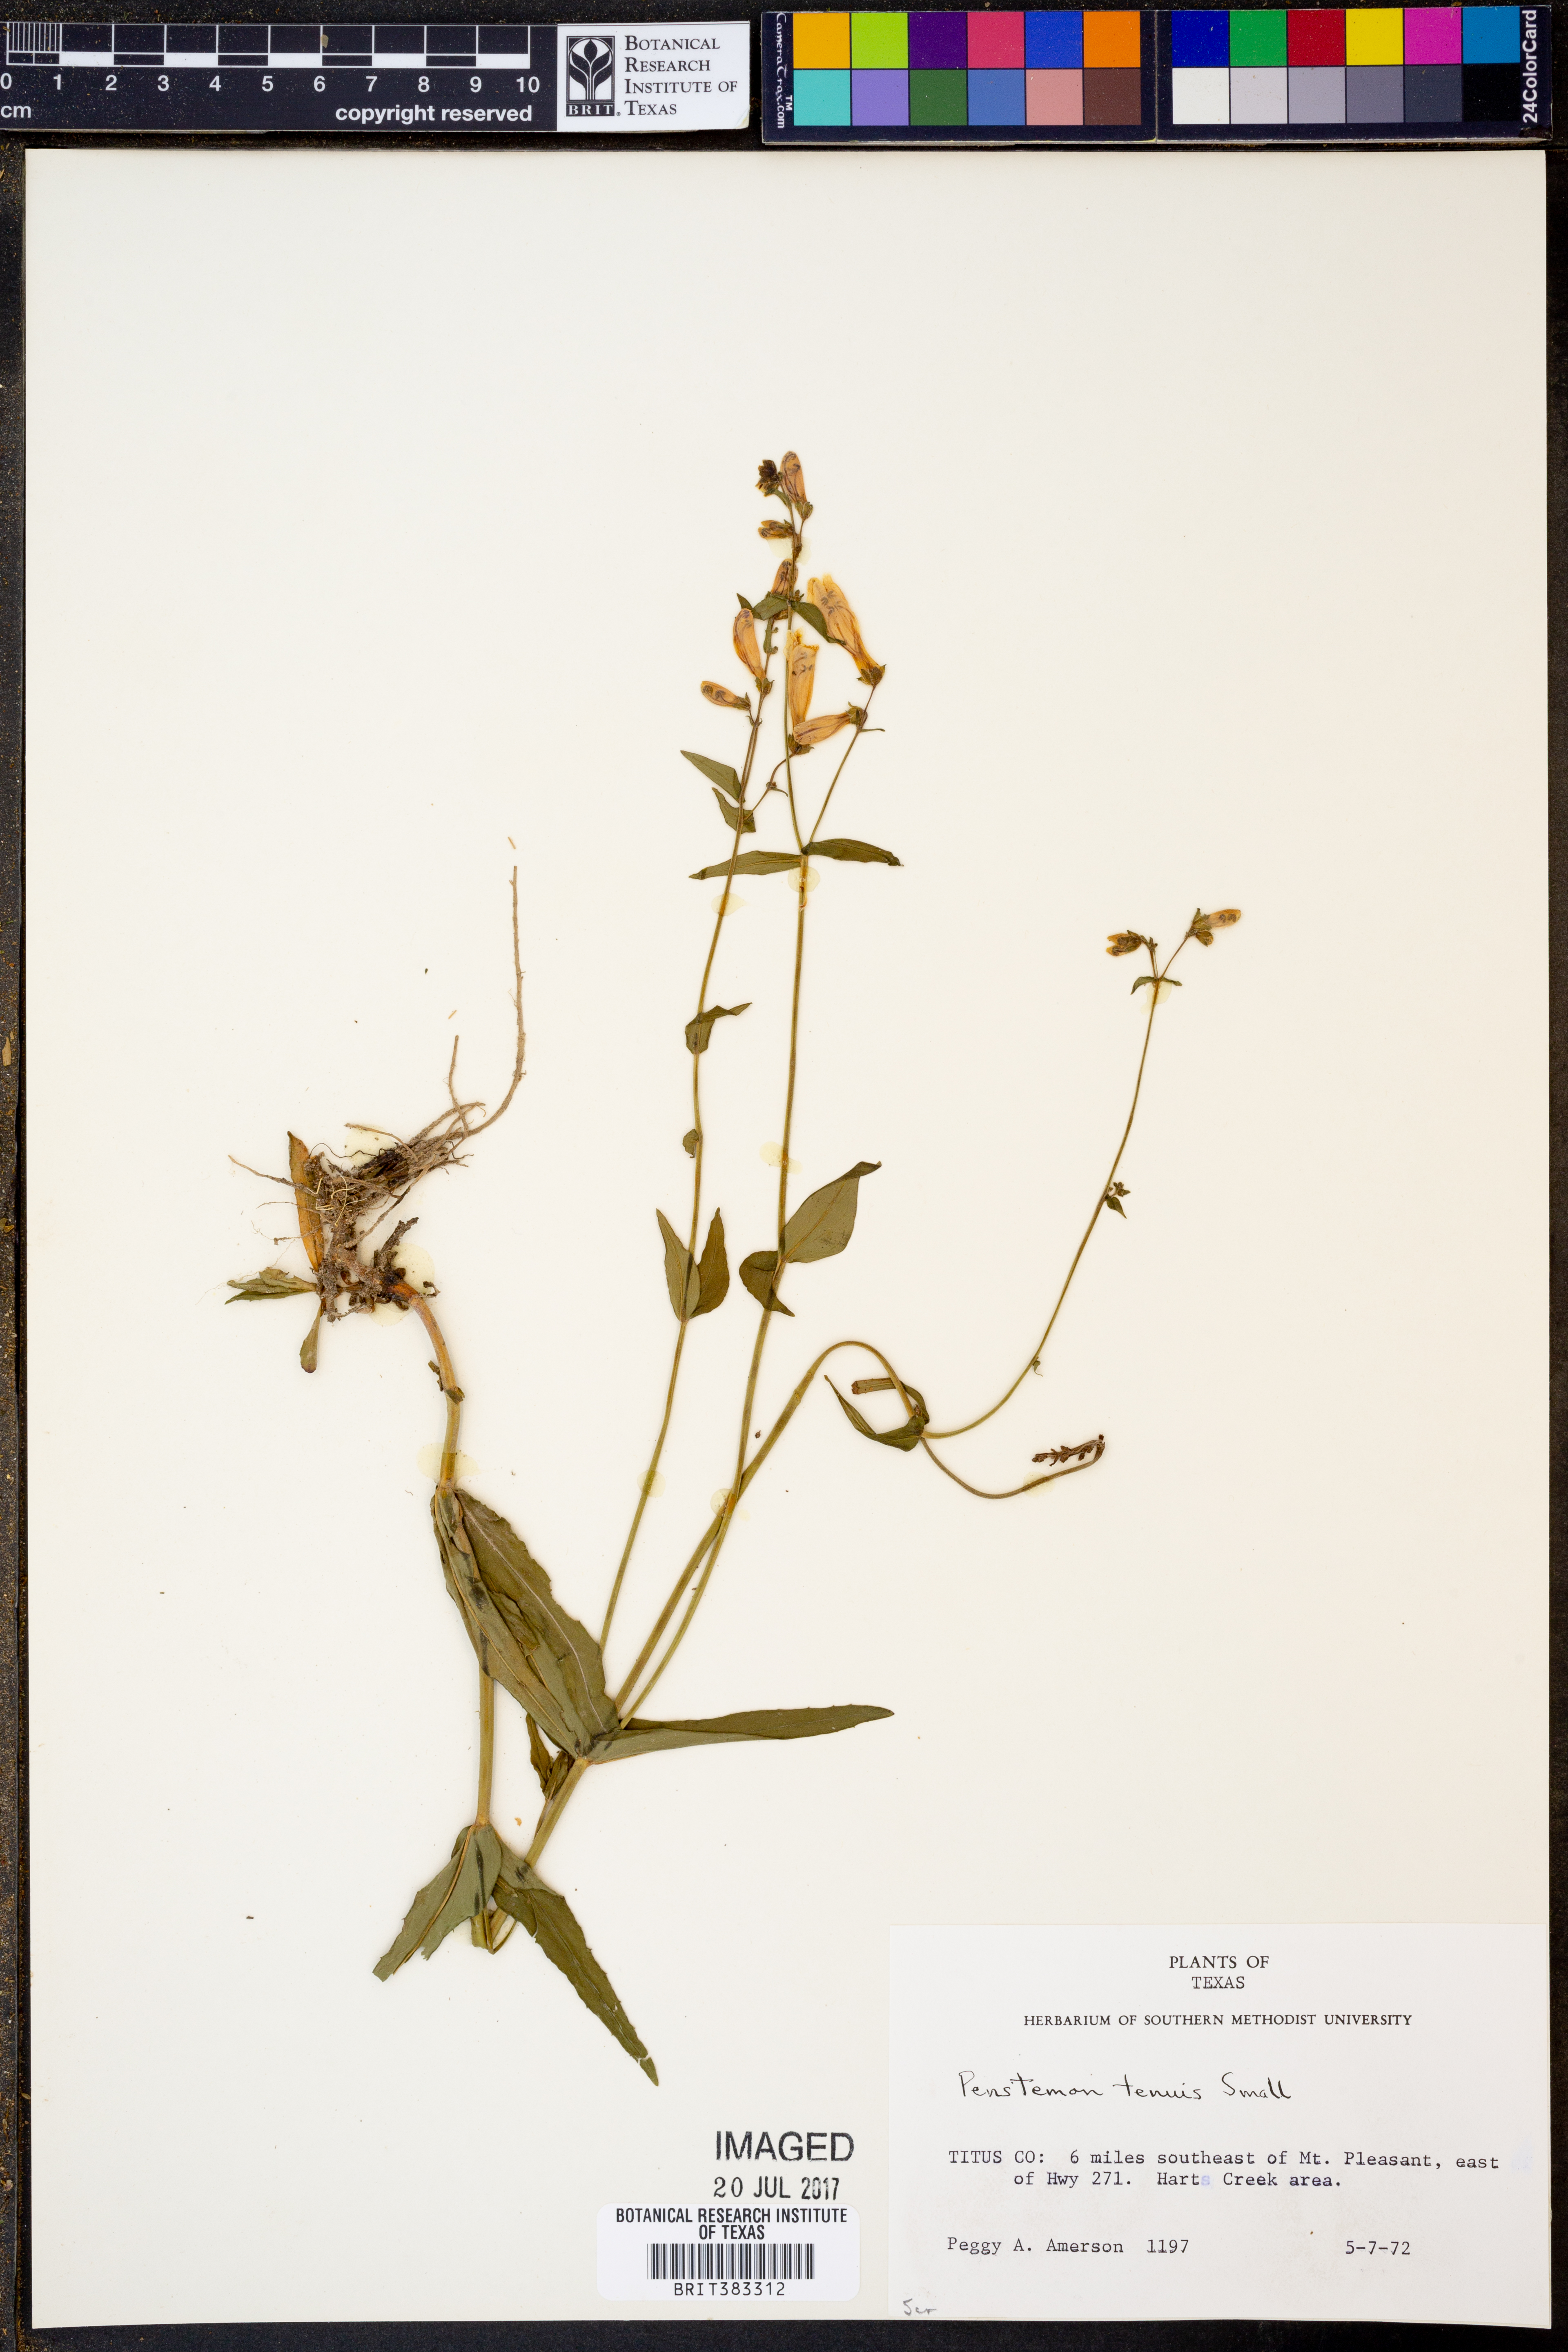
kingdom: Plantae
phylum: Tracheophyta
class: Magnoliopsida
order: Lamiales
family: Plantaginaceae
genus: Penstemon
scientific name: Penstemon tenuis
